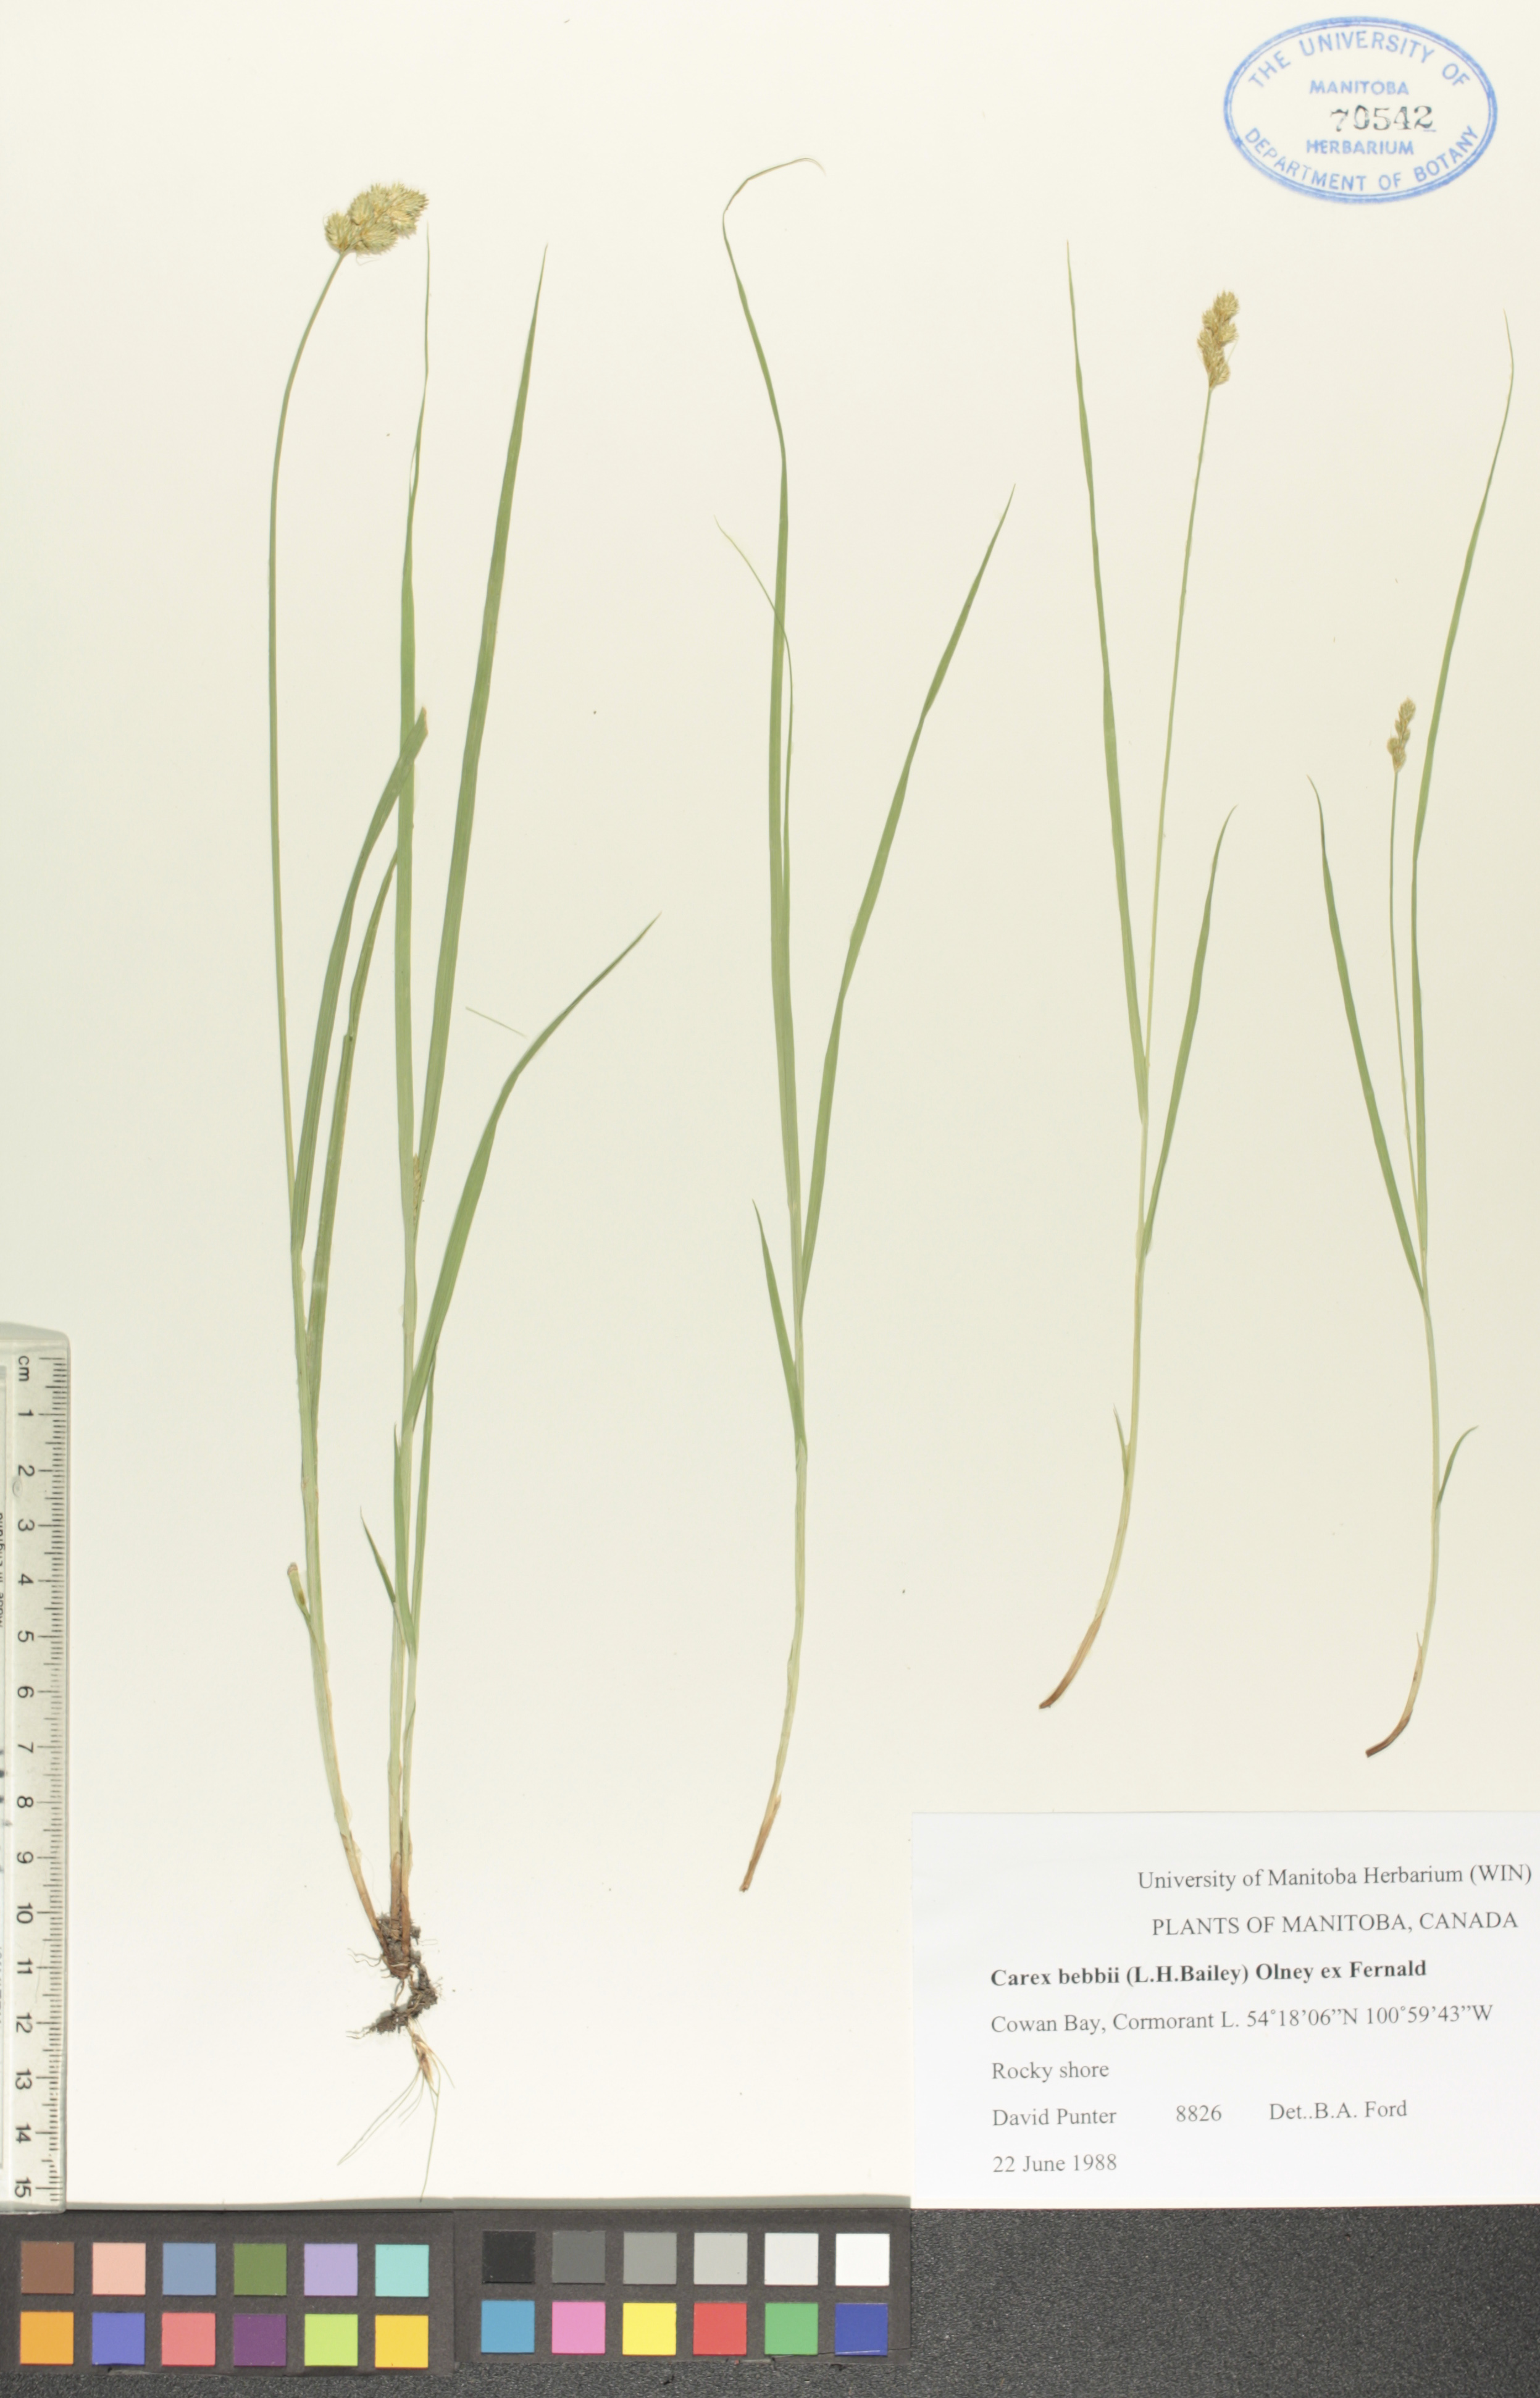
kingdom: Plantae
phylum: Tracheophyta
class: Liliopsida
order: Poales
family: Cyperaceae
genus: Carex
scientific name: Carex bebbii
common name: Bebb's sedge
